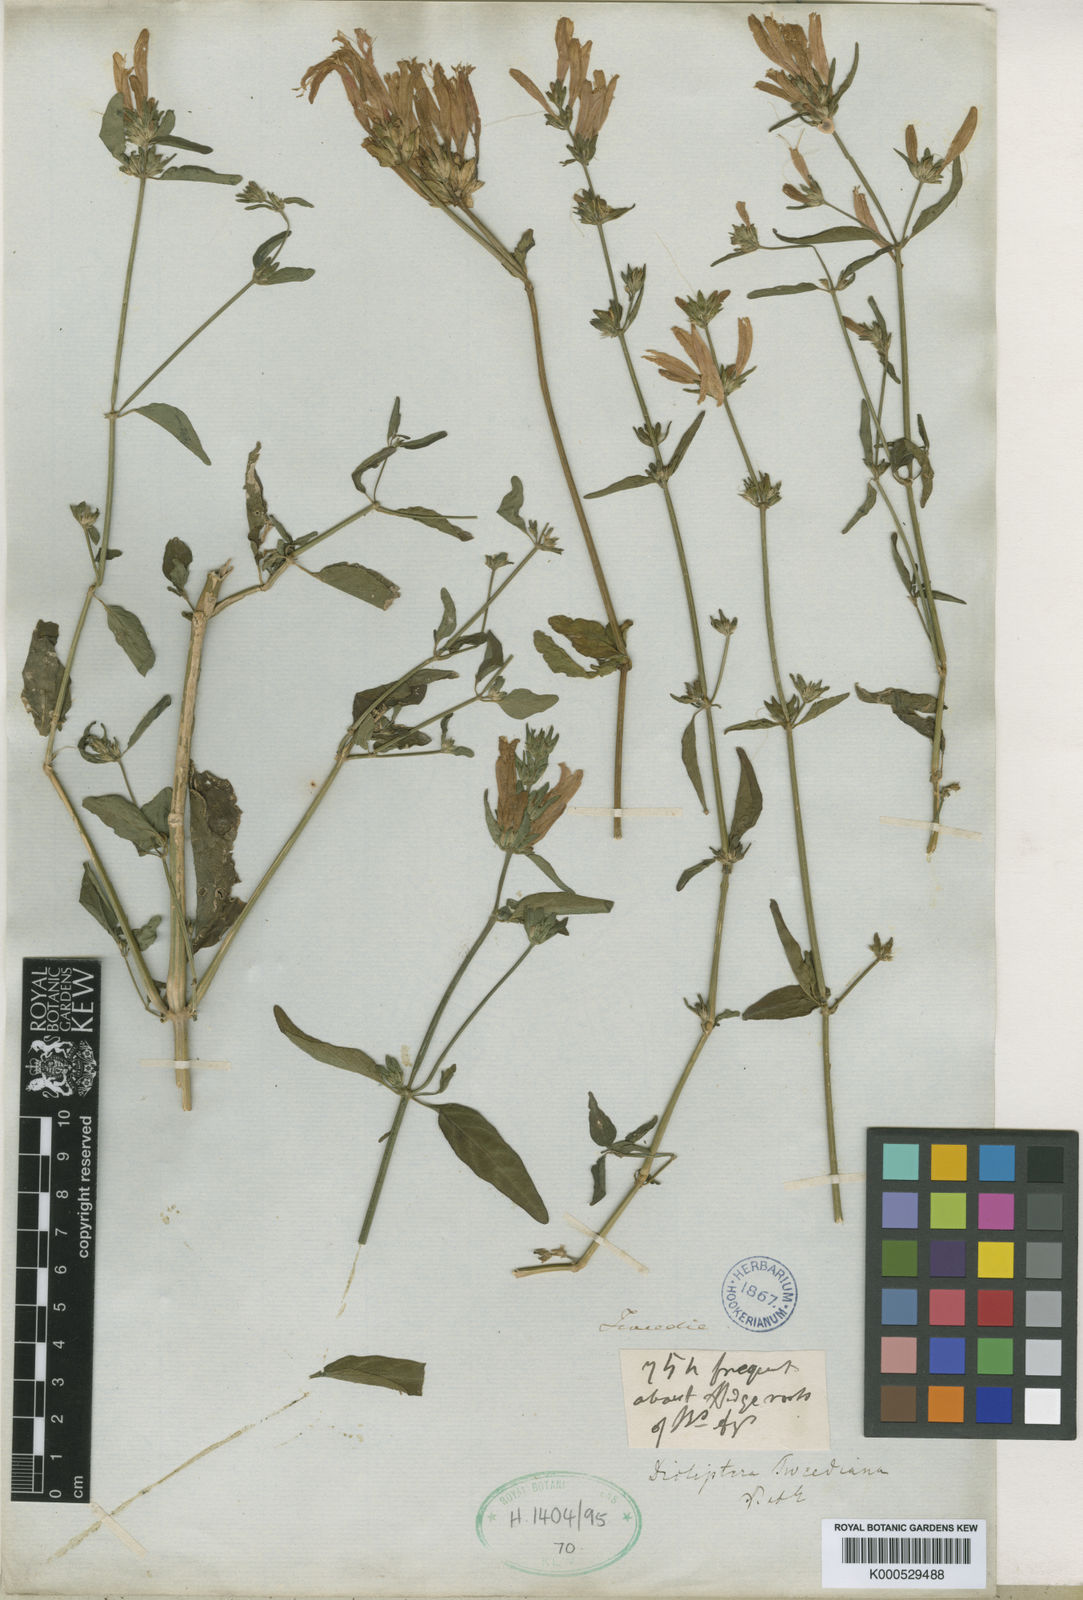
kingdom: Plantae
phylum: Tracheophyta
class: Magnoliopsida
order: Lamiales
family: Acanthaceae
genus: Dicliptera
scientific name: Dicliptera
